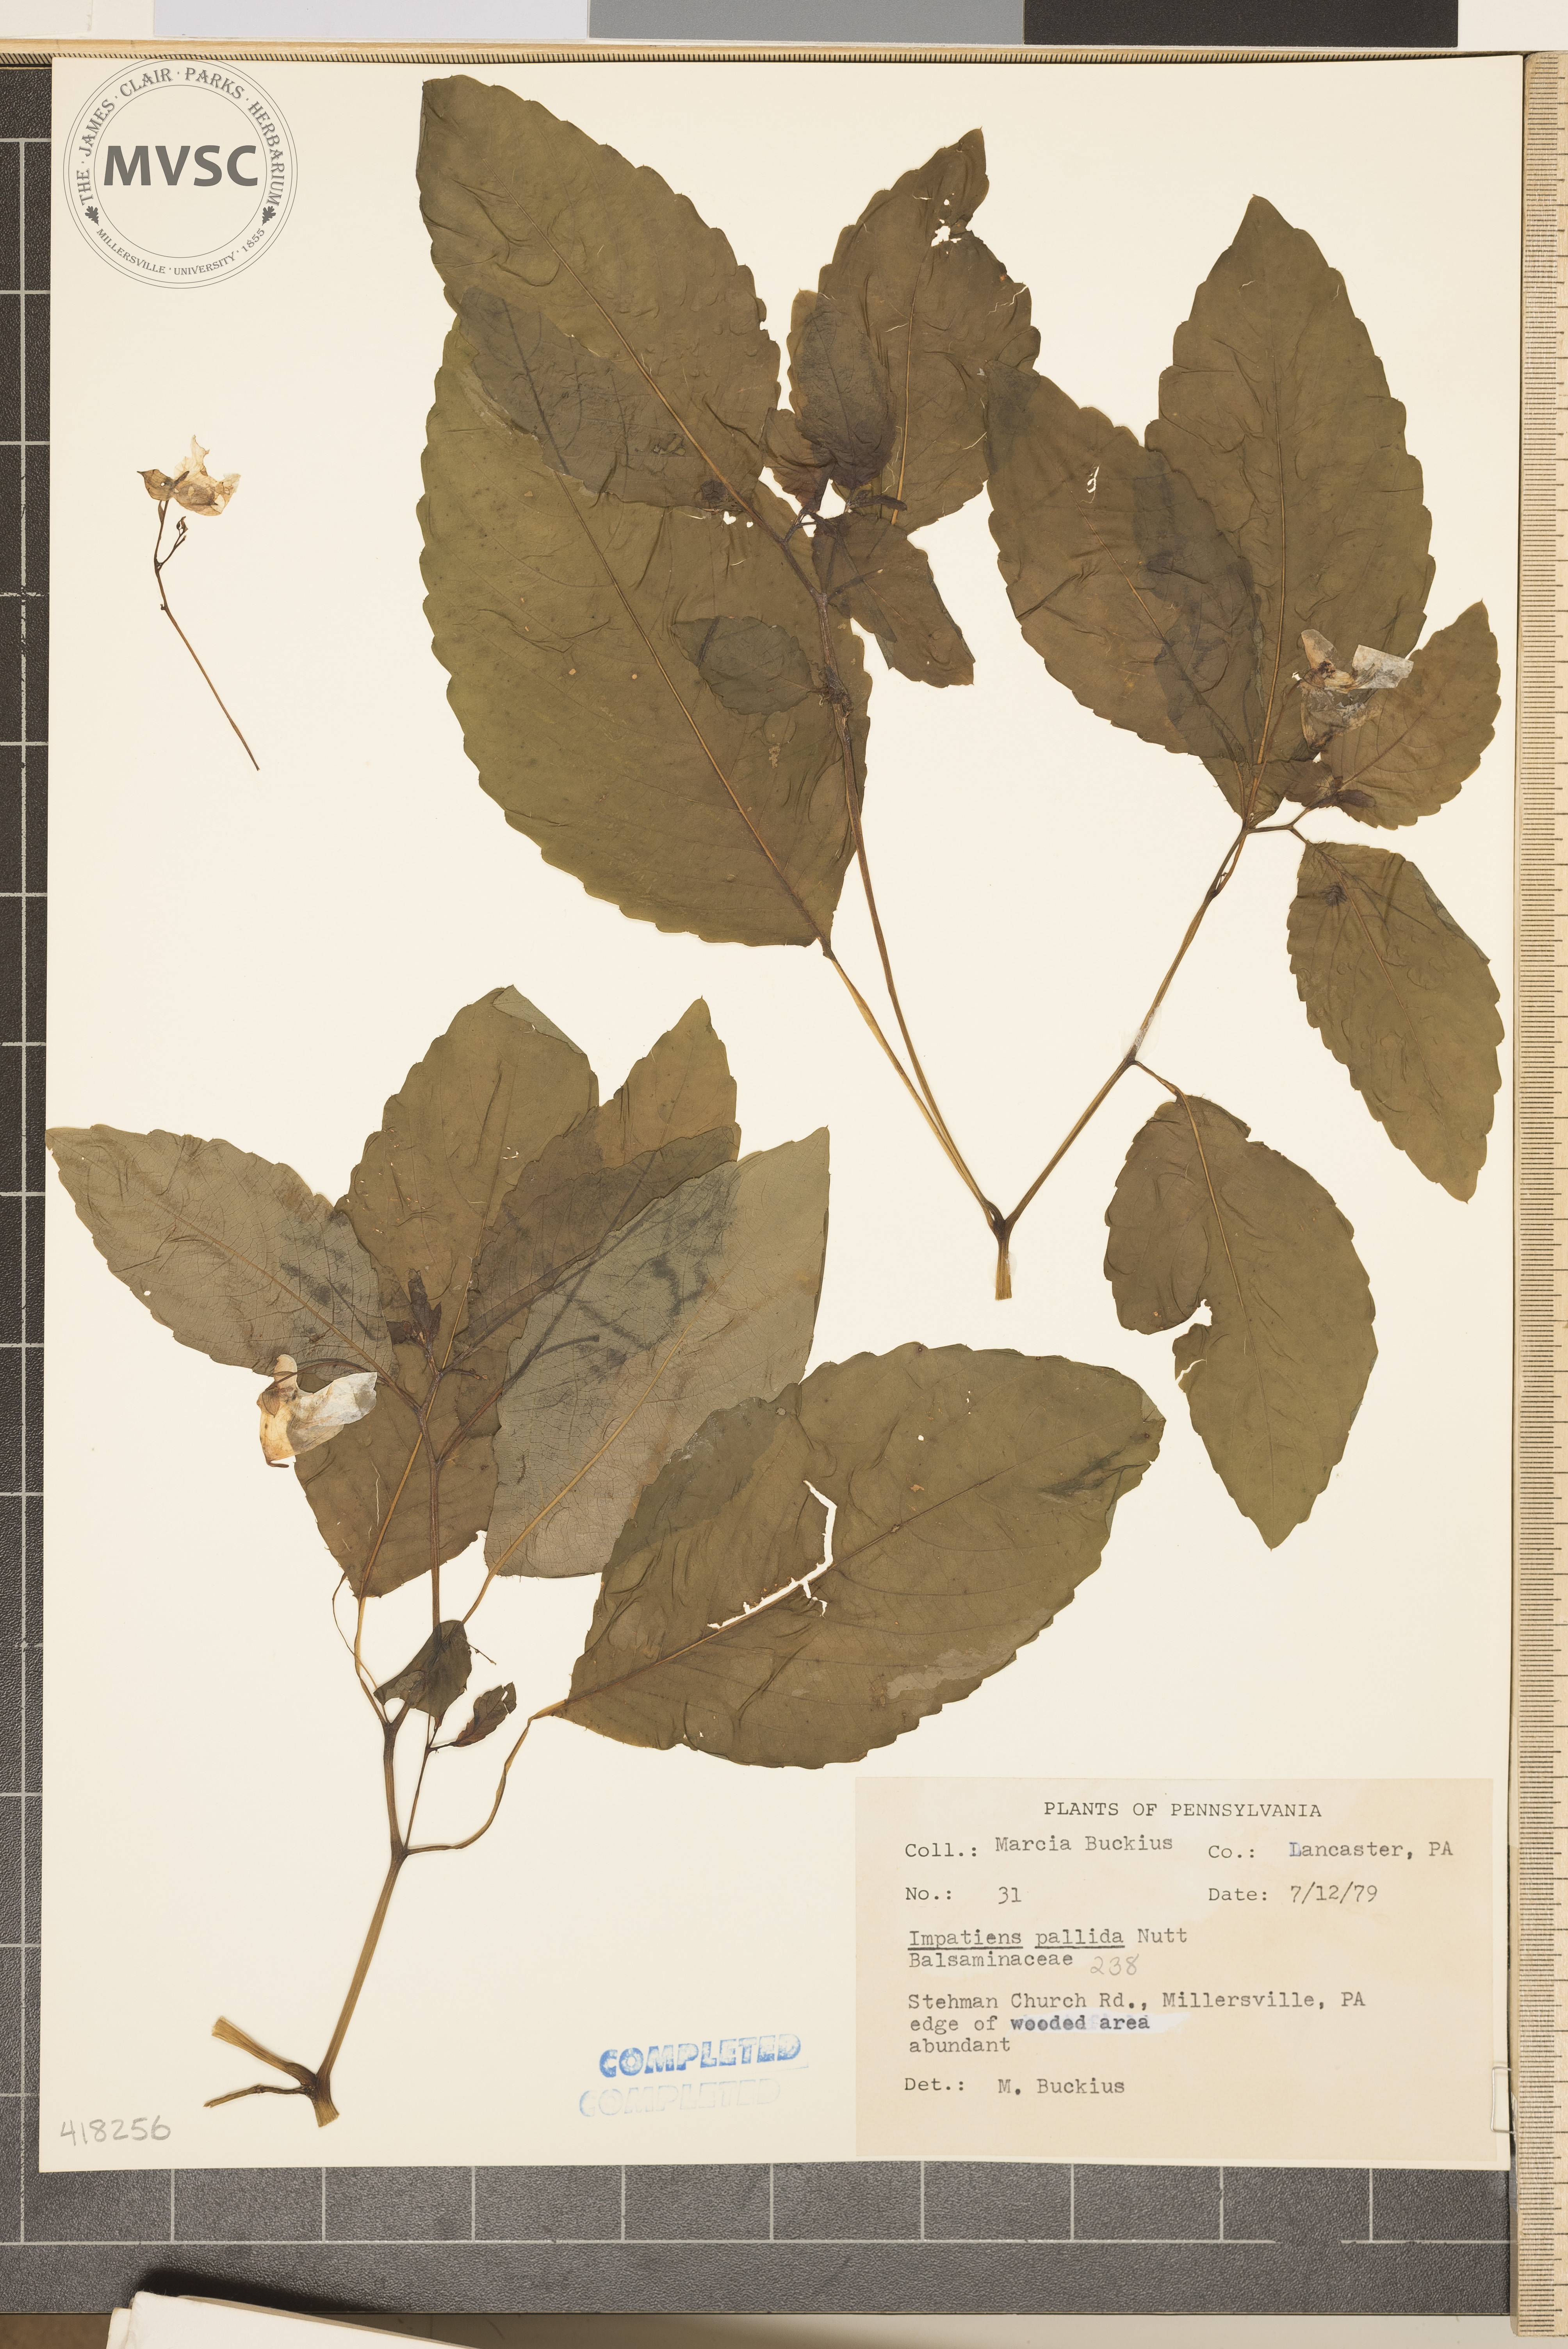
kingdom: Plantae
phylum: Tracheophyta
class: Magnoliopsida
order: Ericales
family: Balsaminaceae
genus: Impatiens
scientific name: Impatiens pallida
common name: Yellow jewelweed
